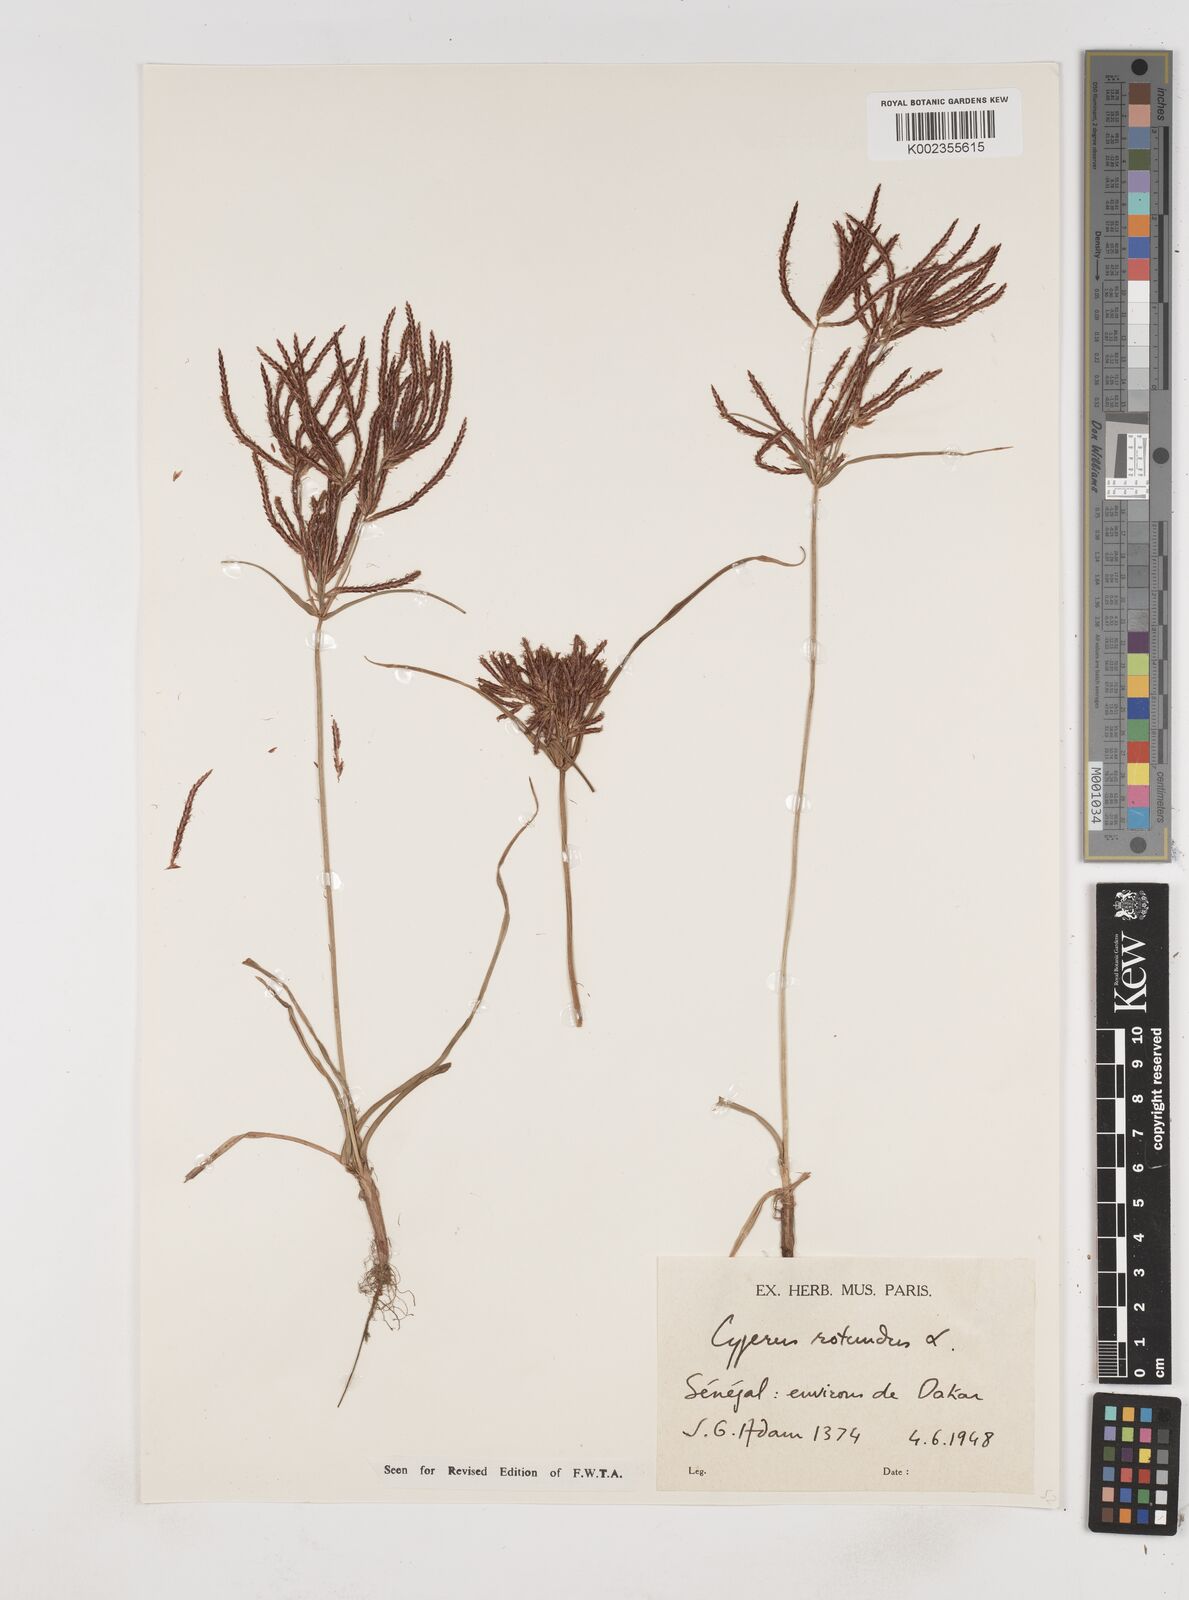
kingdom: Plantae
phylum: Tracheophyta
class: Liliopsida
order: Poales
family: Cyperaceae
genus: Cyperus
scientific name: Cyperus rotundus
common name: Nutgrass
